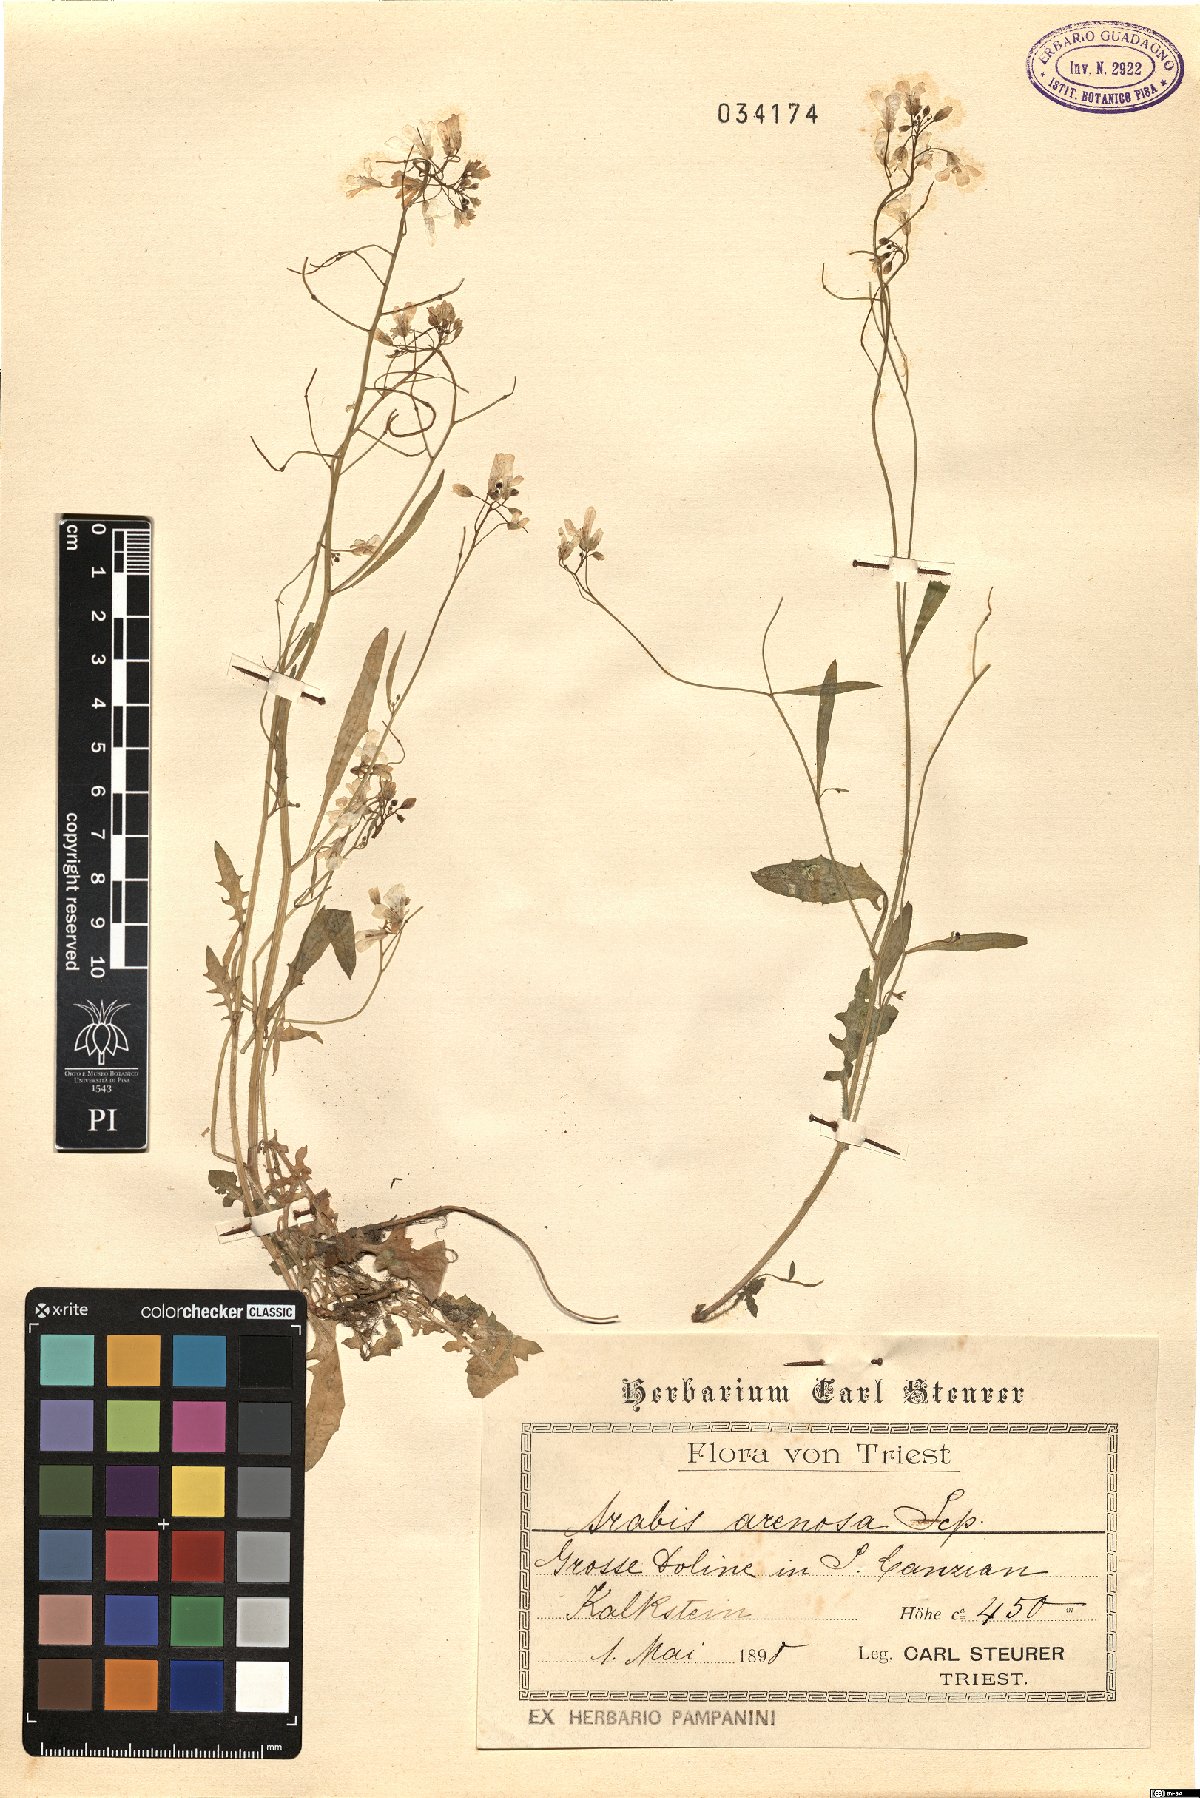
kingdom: Plantae
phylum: Tracheophyta
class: Magnoliopsida
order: Brassicales
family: Brassicaceae
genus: Arabidopsis
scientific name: Arabidopsis arenosa
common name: Sand rock-cress
